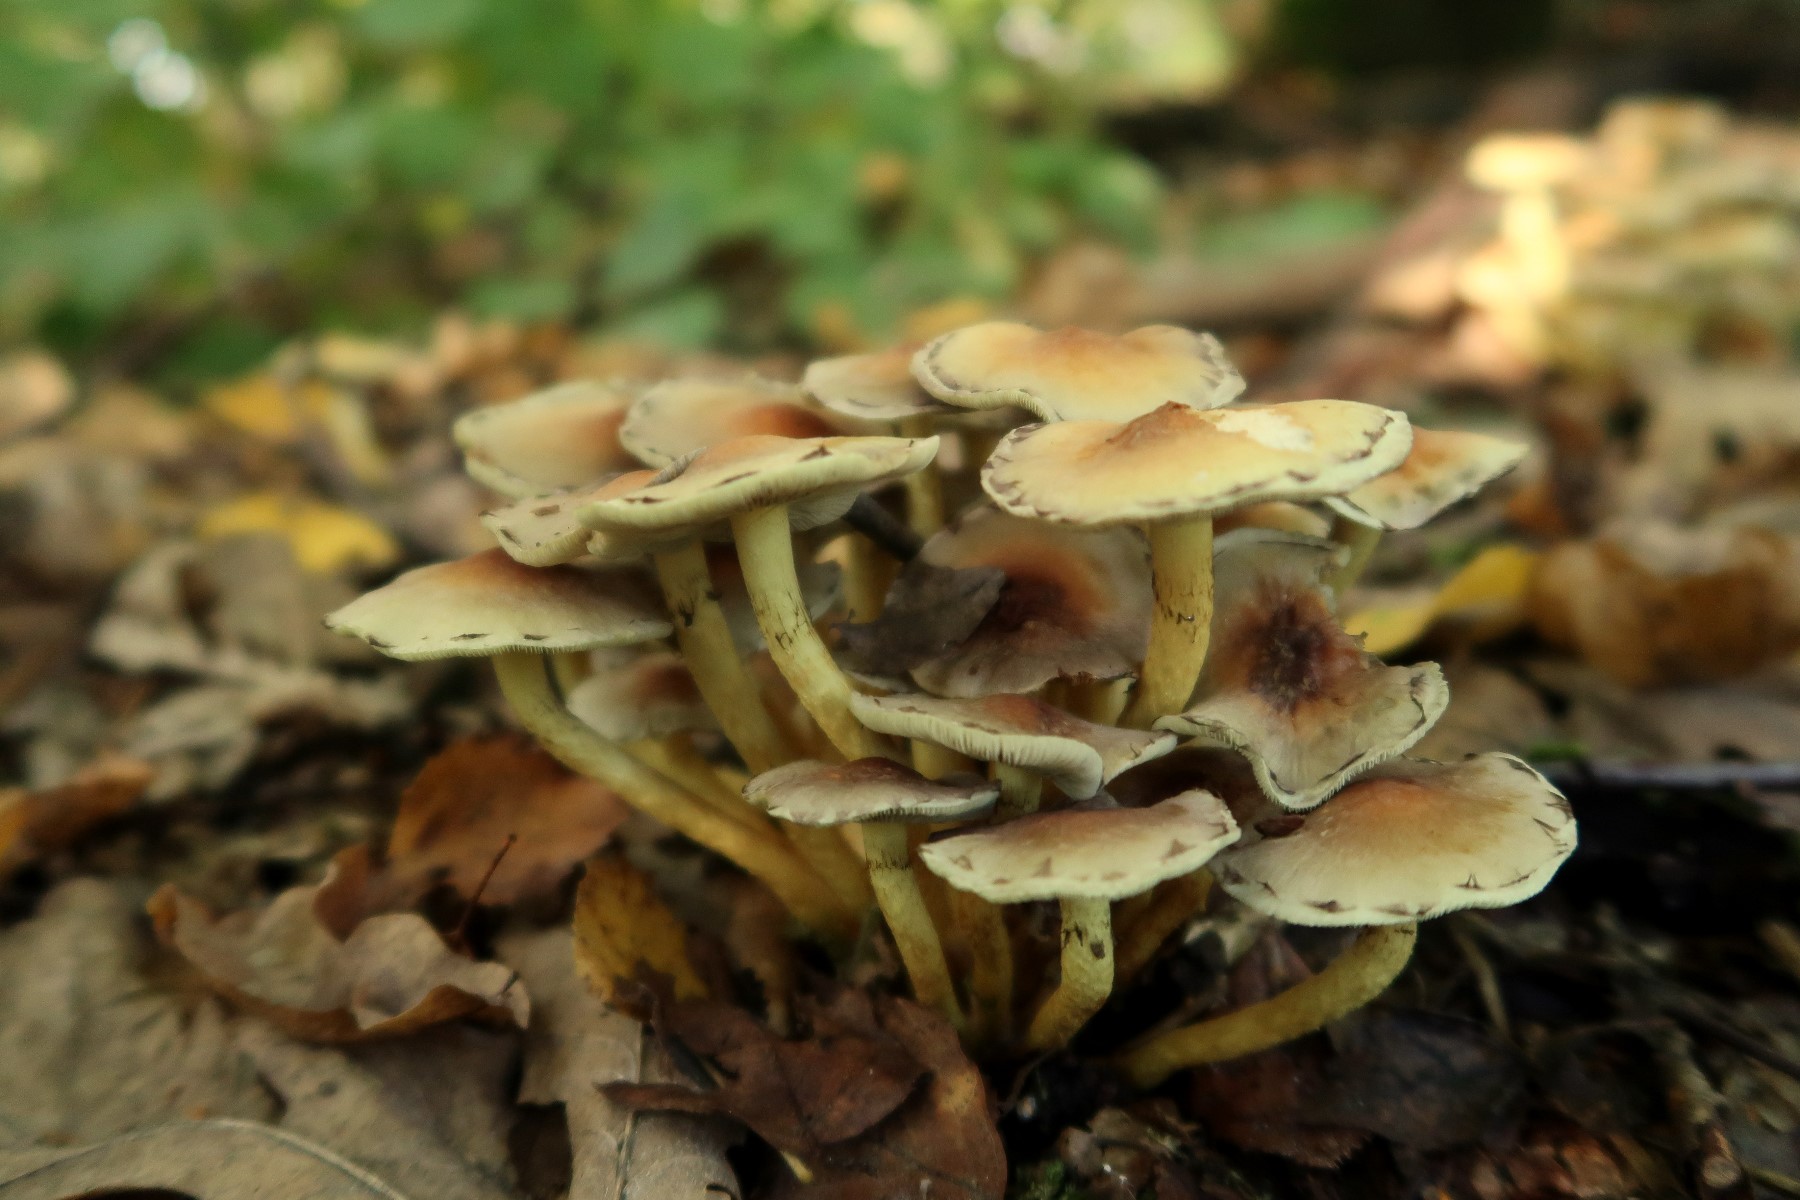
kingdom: Fungi
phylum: Basidiomycota
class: Agaricomycetes
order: Agaricales
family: Strophariaceae
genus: Hypholoma
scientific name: Hypholoma fasciculare
